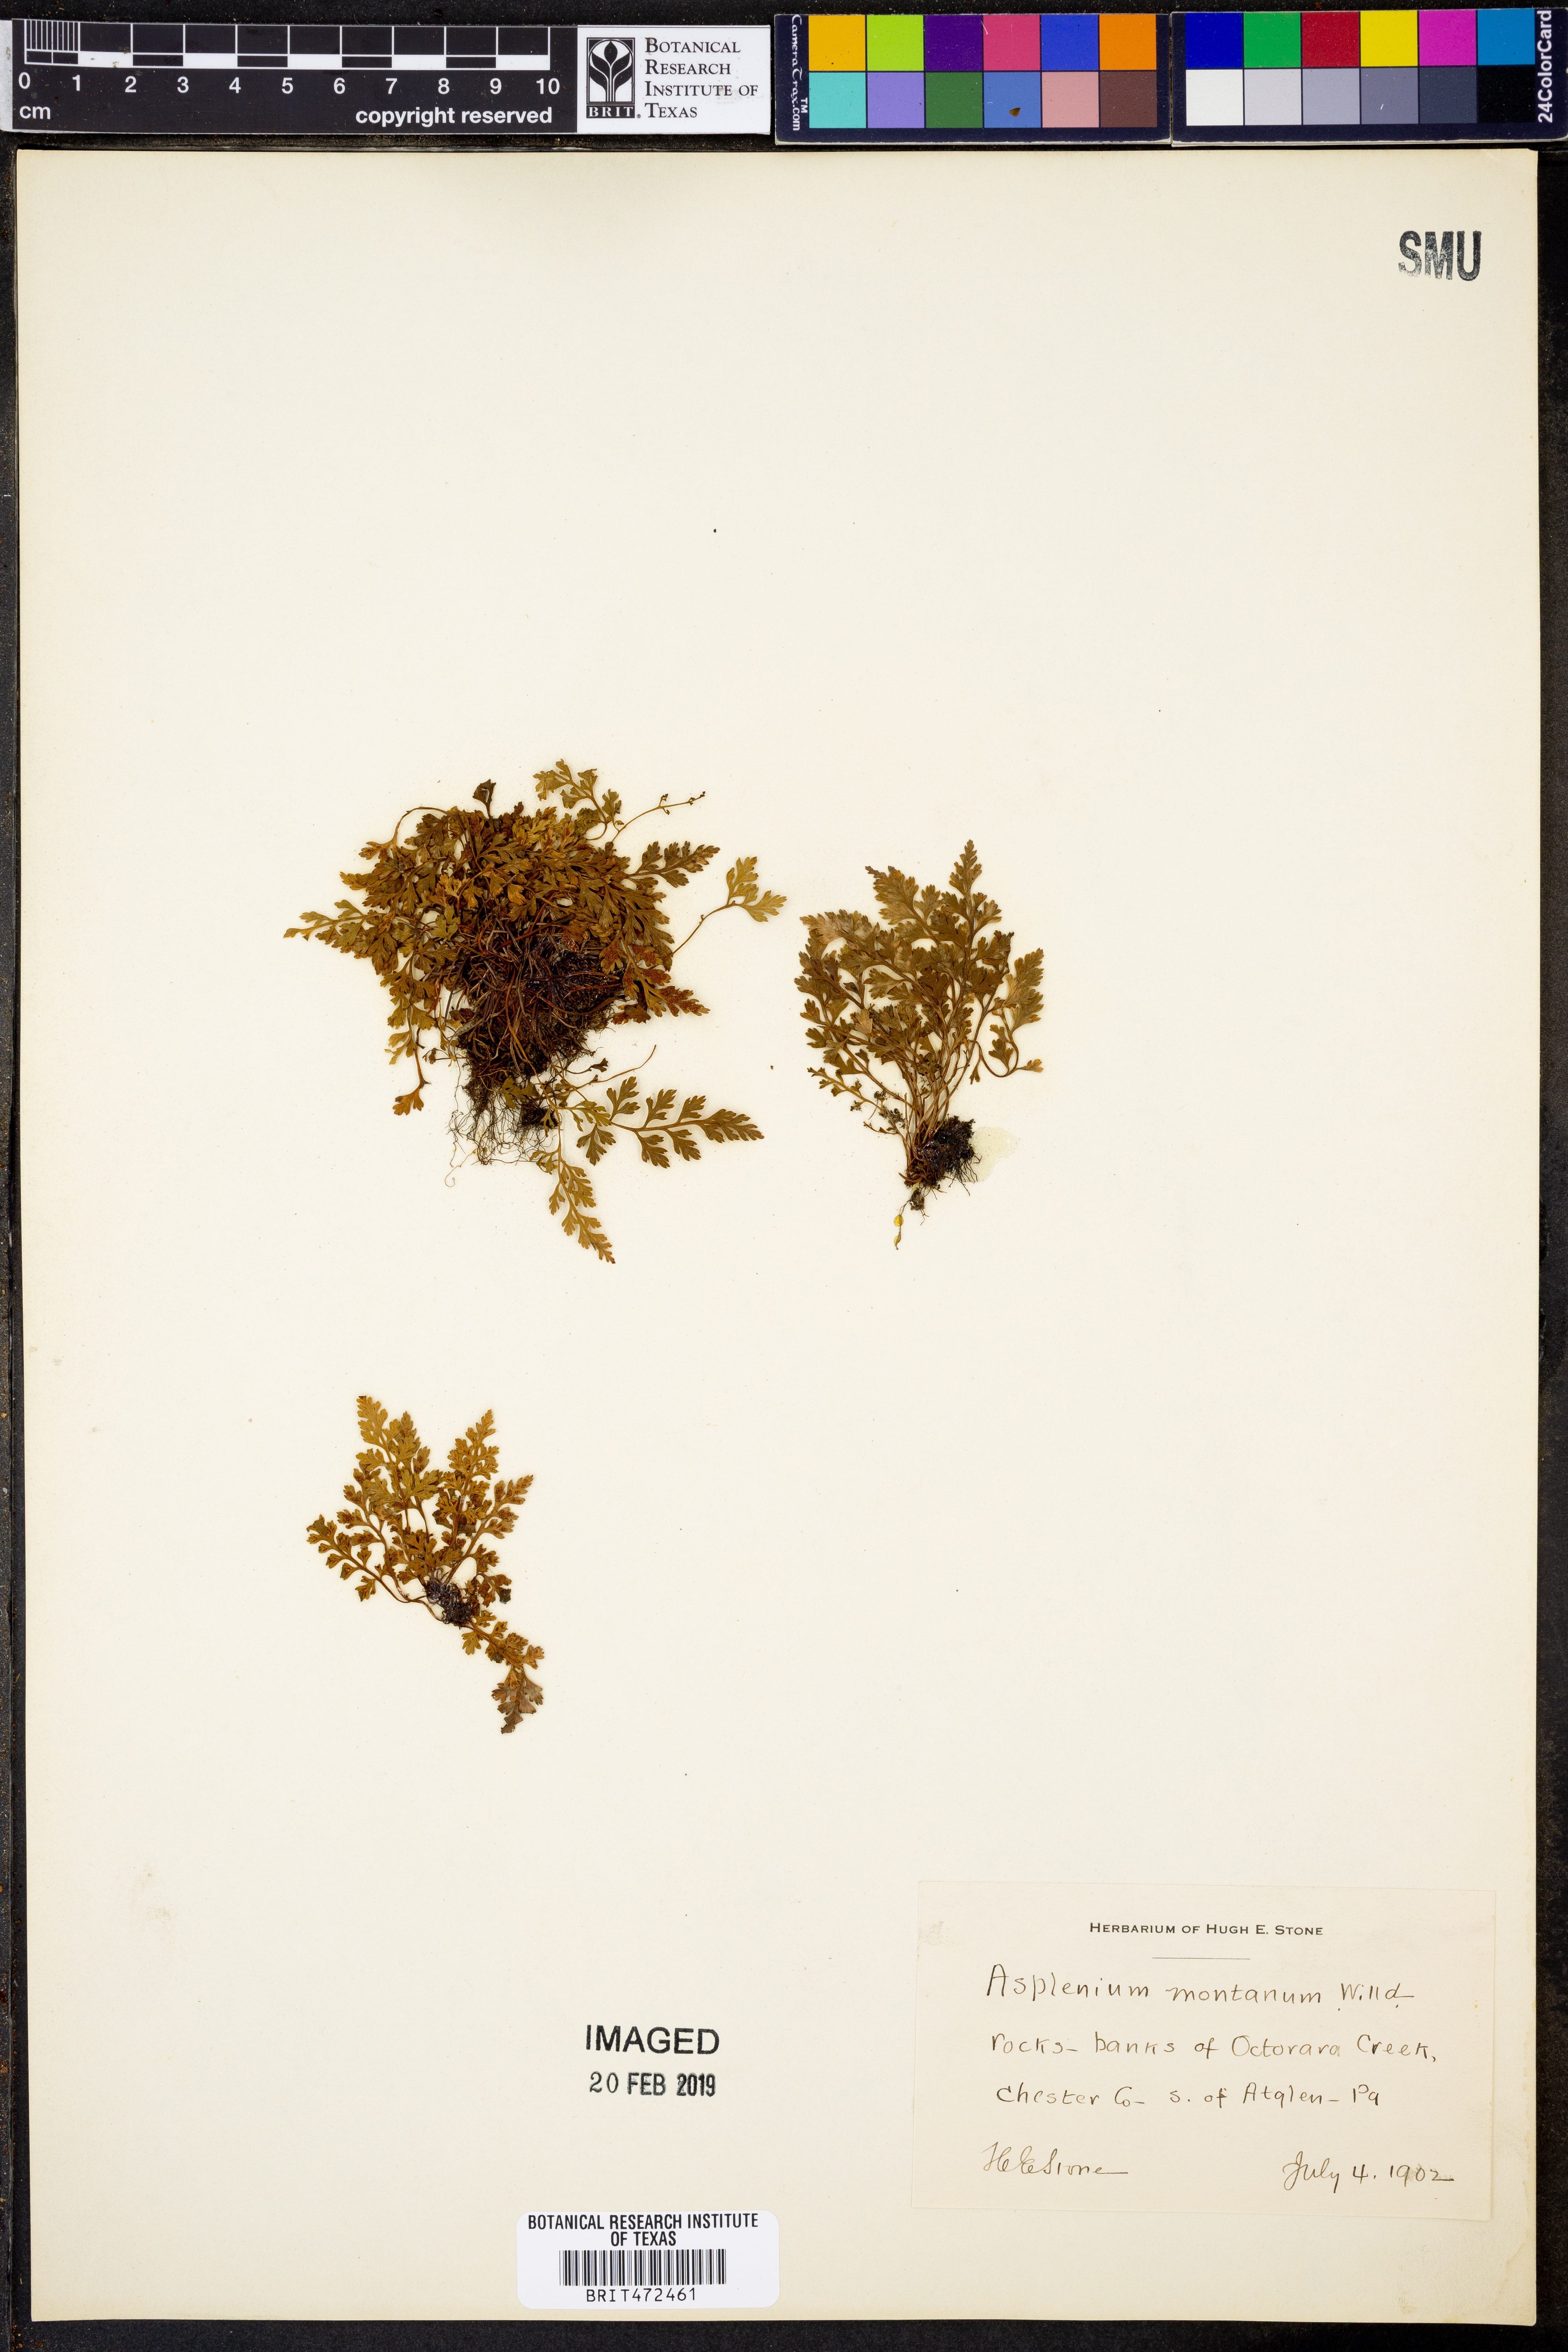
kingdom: Plantae
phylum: Tracheophyta
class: Polypodiopsida
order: Polypodiales
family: Aspleniaceae
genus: Asplenium
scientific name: Asplenium montanum
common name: Mountain spleenwort
